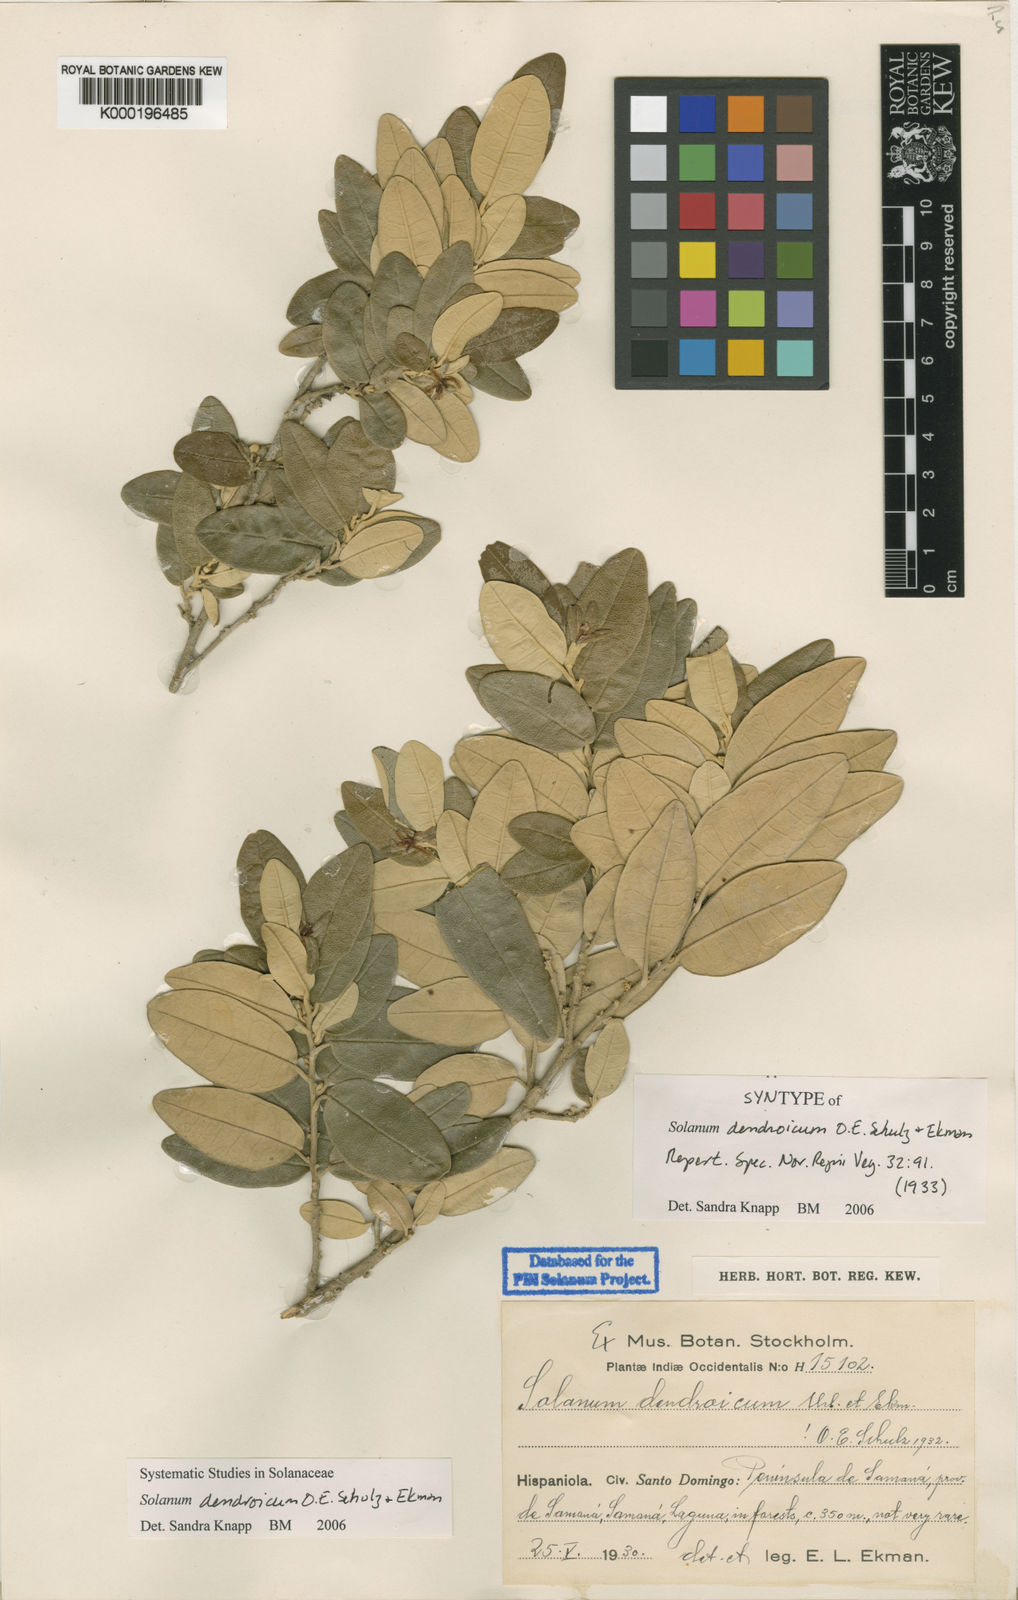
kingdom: Plantae
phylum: Tracheophyta
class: Magnoliopsida
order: Solanales
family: Solanaceae
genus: Solanum
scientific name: Solanum dendroicum
